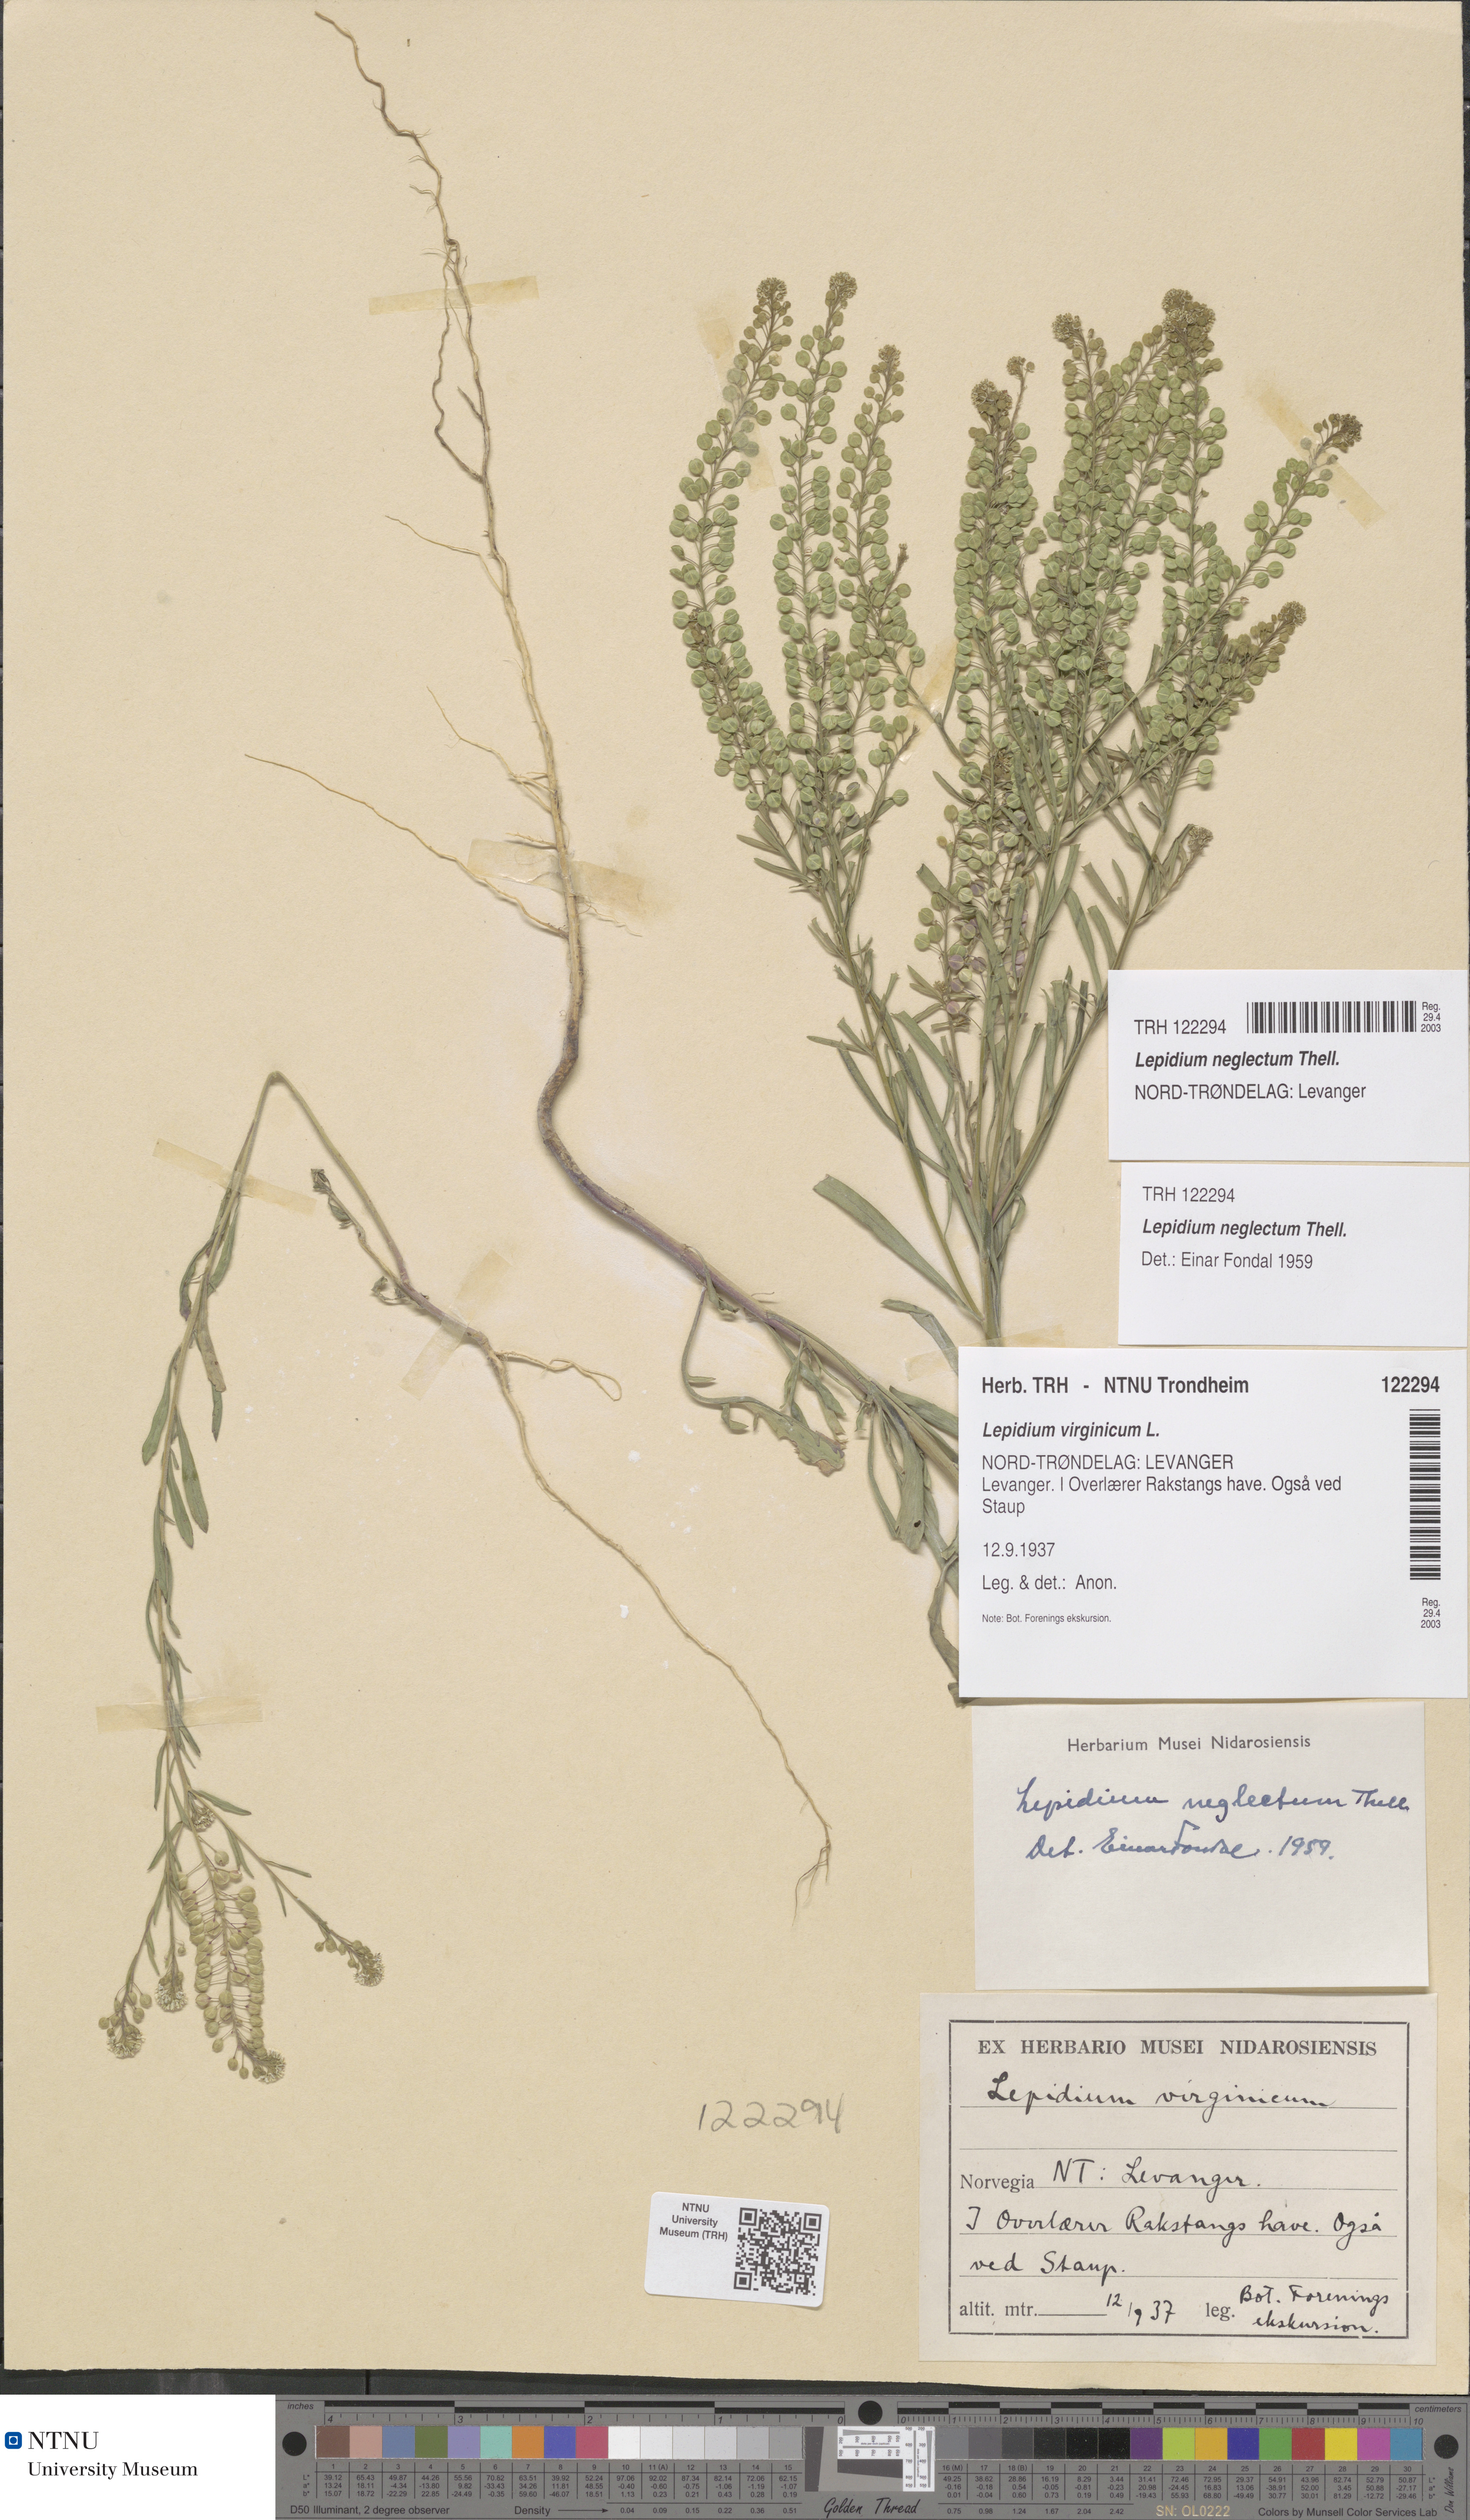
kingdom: Plantae
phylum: Tracheophyta
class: Magnoliopsida
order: Brassicales
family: Brassicaceae
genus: Lepidium
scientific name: Lepidium densiflorum
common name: Miner's pepperwort
